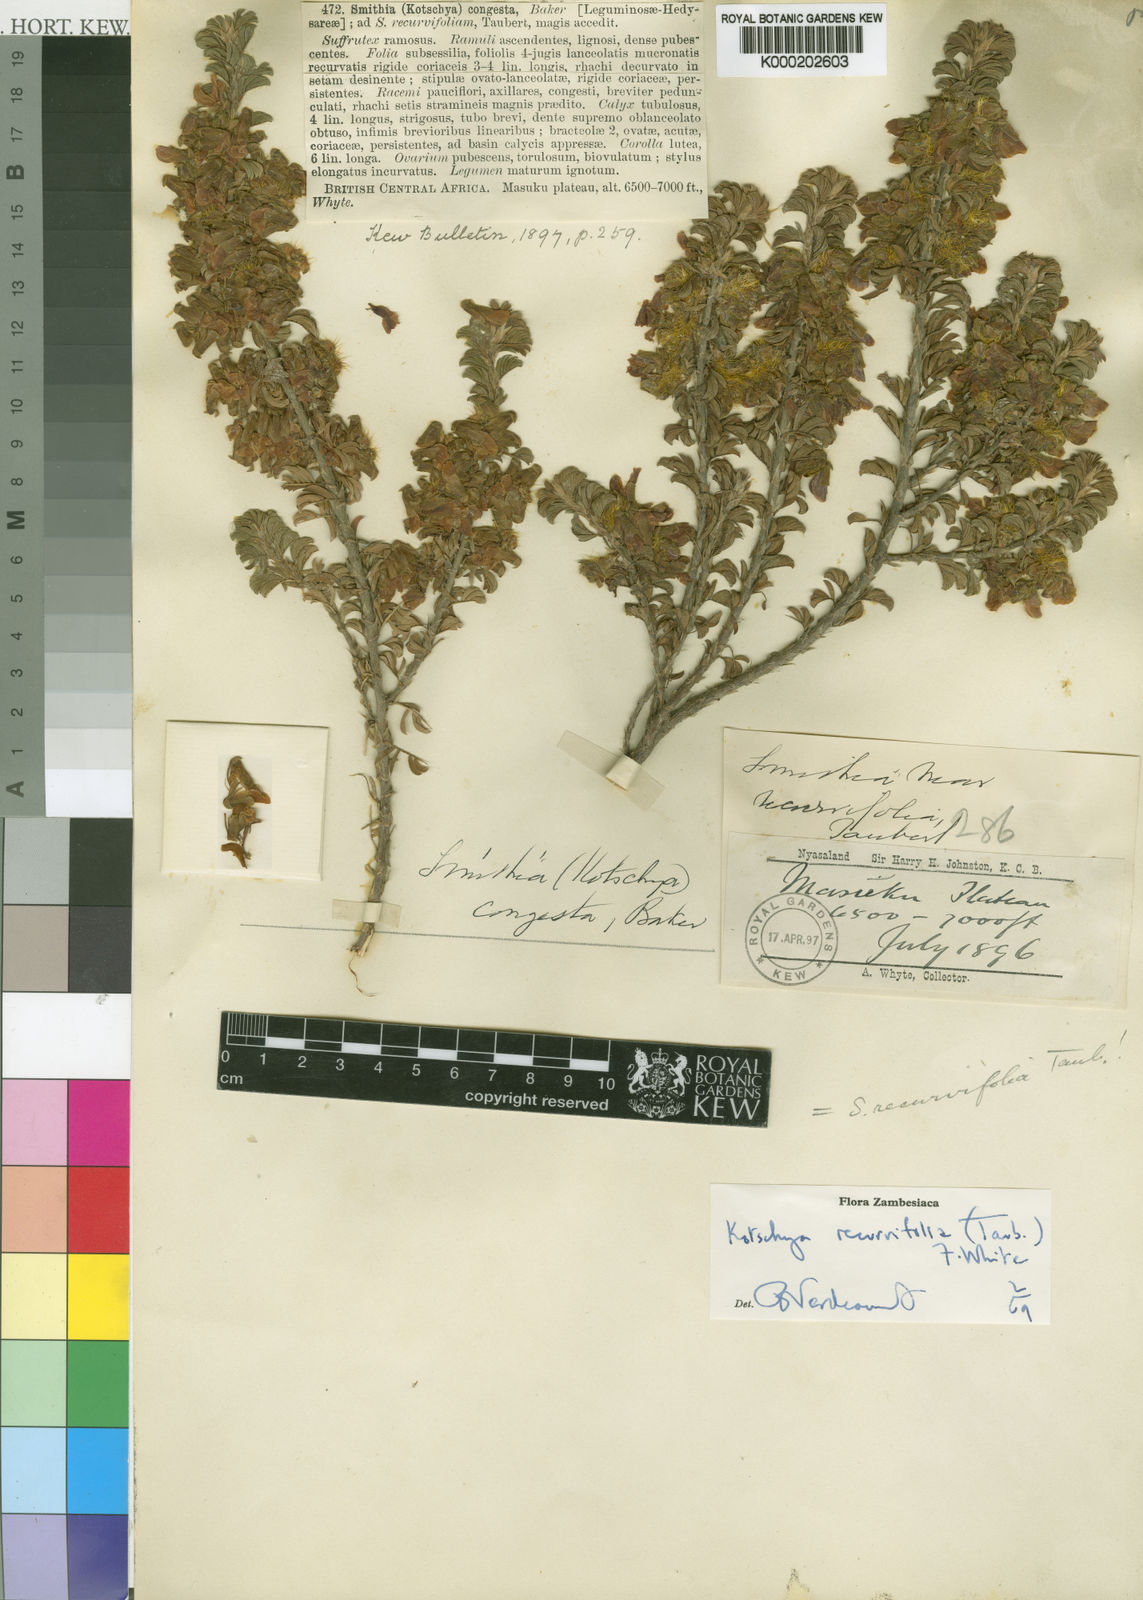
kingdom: Plantae
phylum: Tracheophyta
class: Magnoliopsida
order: Fabales
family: Fabaceae
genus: Kotschya
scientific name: Kotschya recurvifolia
